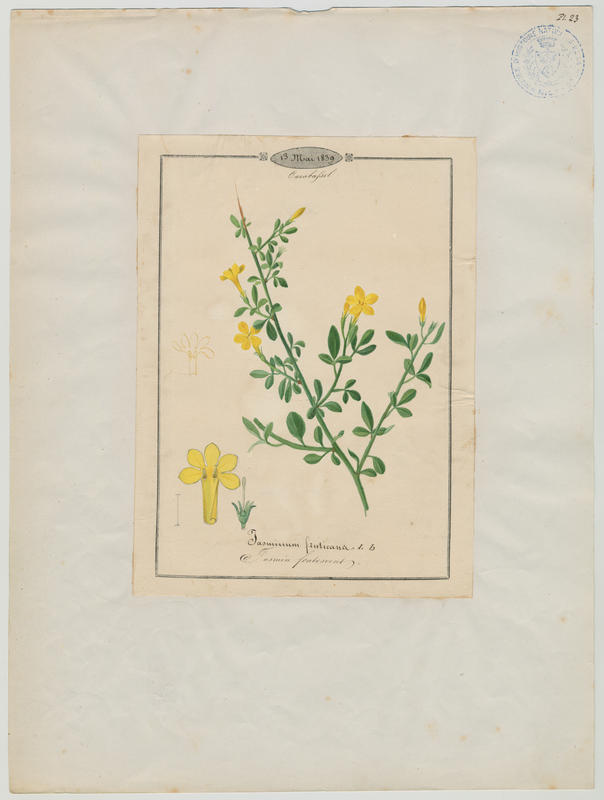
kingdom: Plantae
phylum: Tracheophyta
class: Magnoliopsida
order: Lamiales
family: Oleaceae
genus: Chrysojasminum
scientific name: Chrysojasminum fruticans
